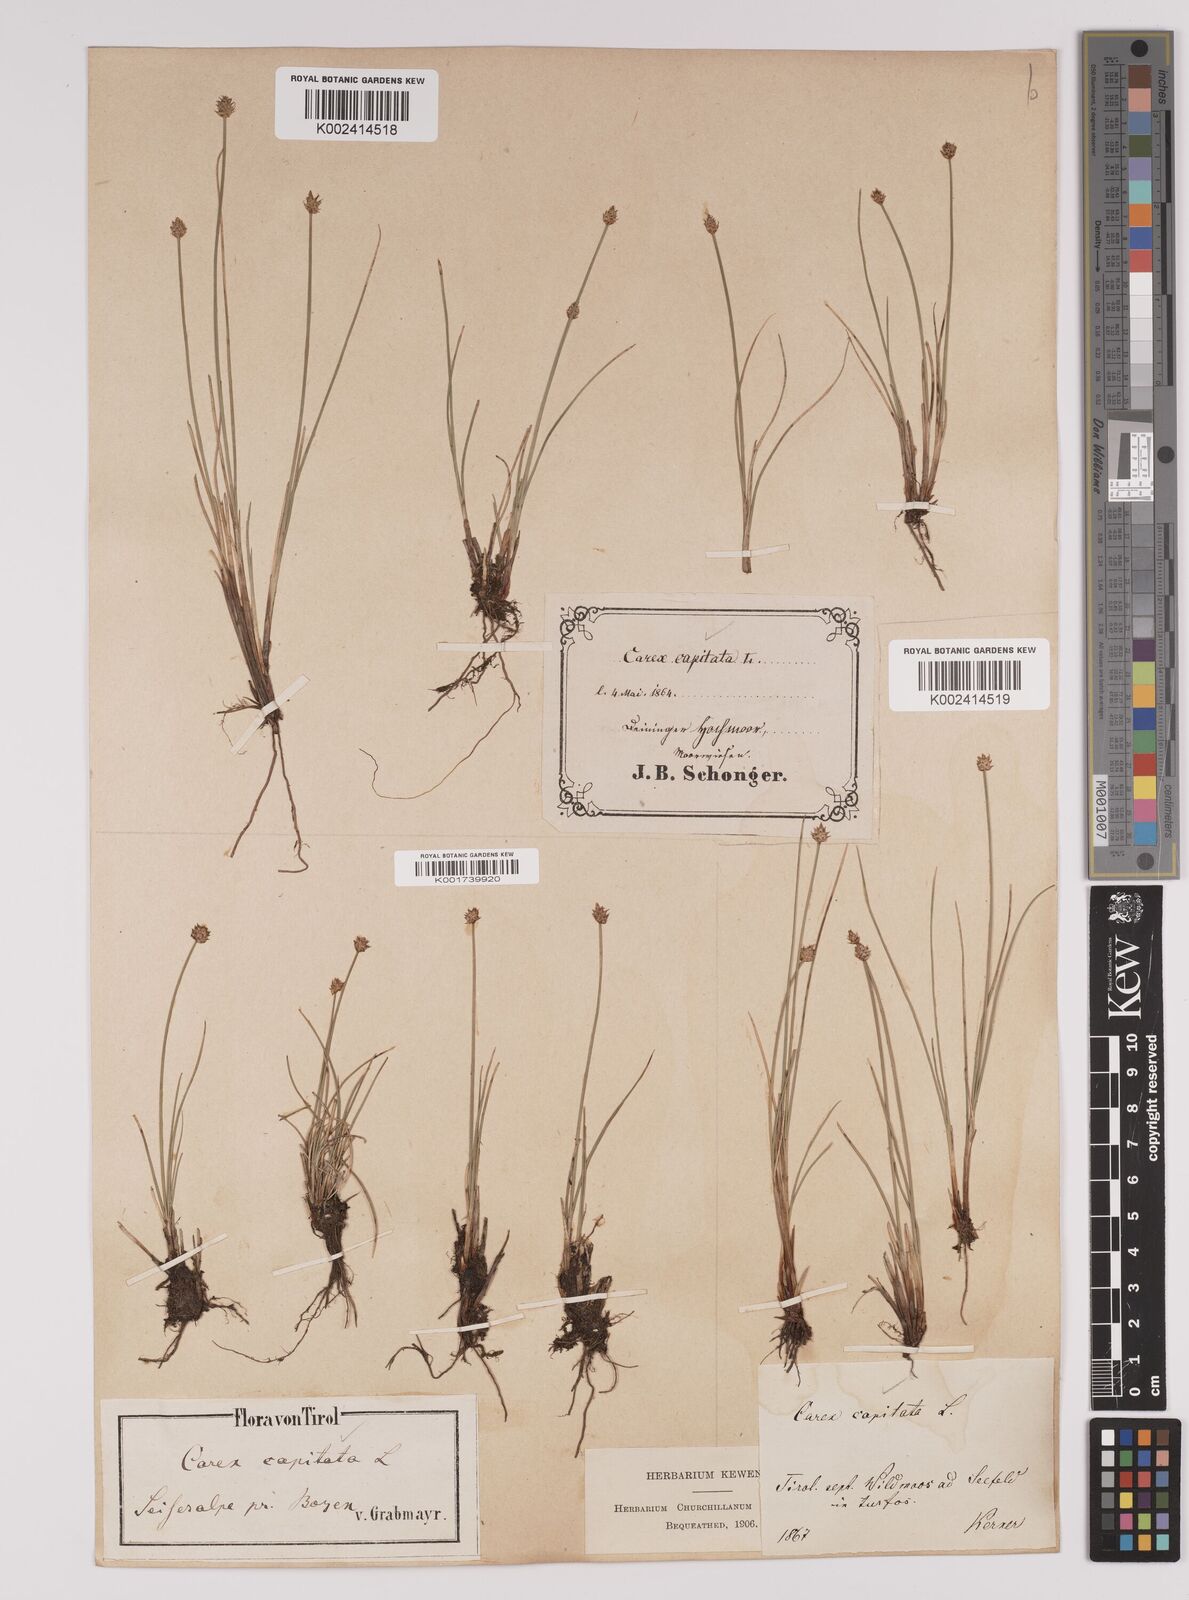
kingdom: Plantae
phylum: Tracheophyta
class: Liliopsida
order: Poales
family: Cyperaceae
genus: Carex
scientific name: Carex capitata
